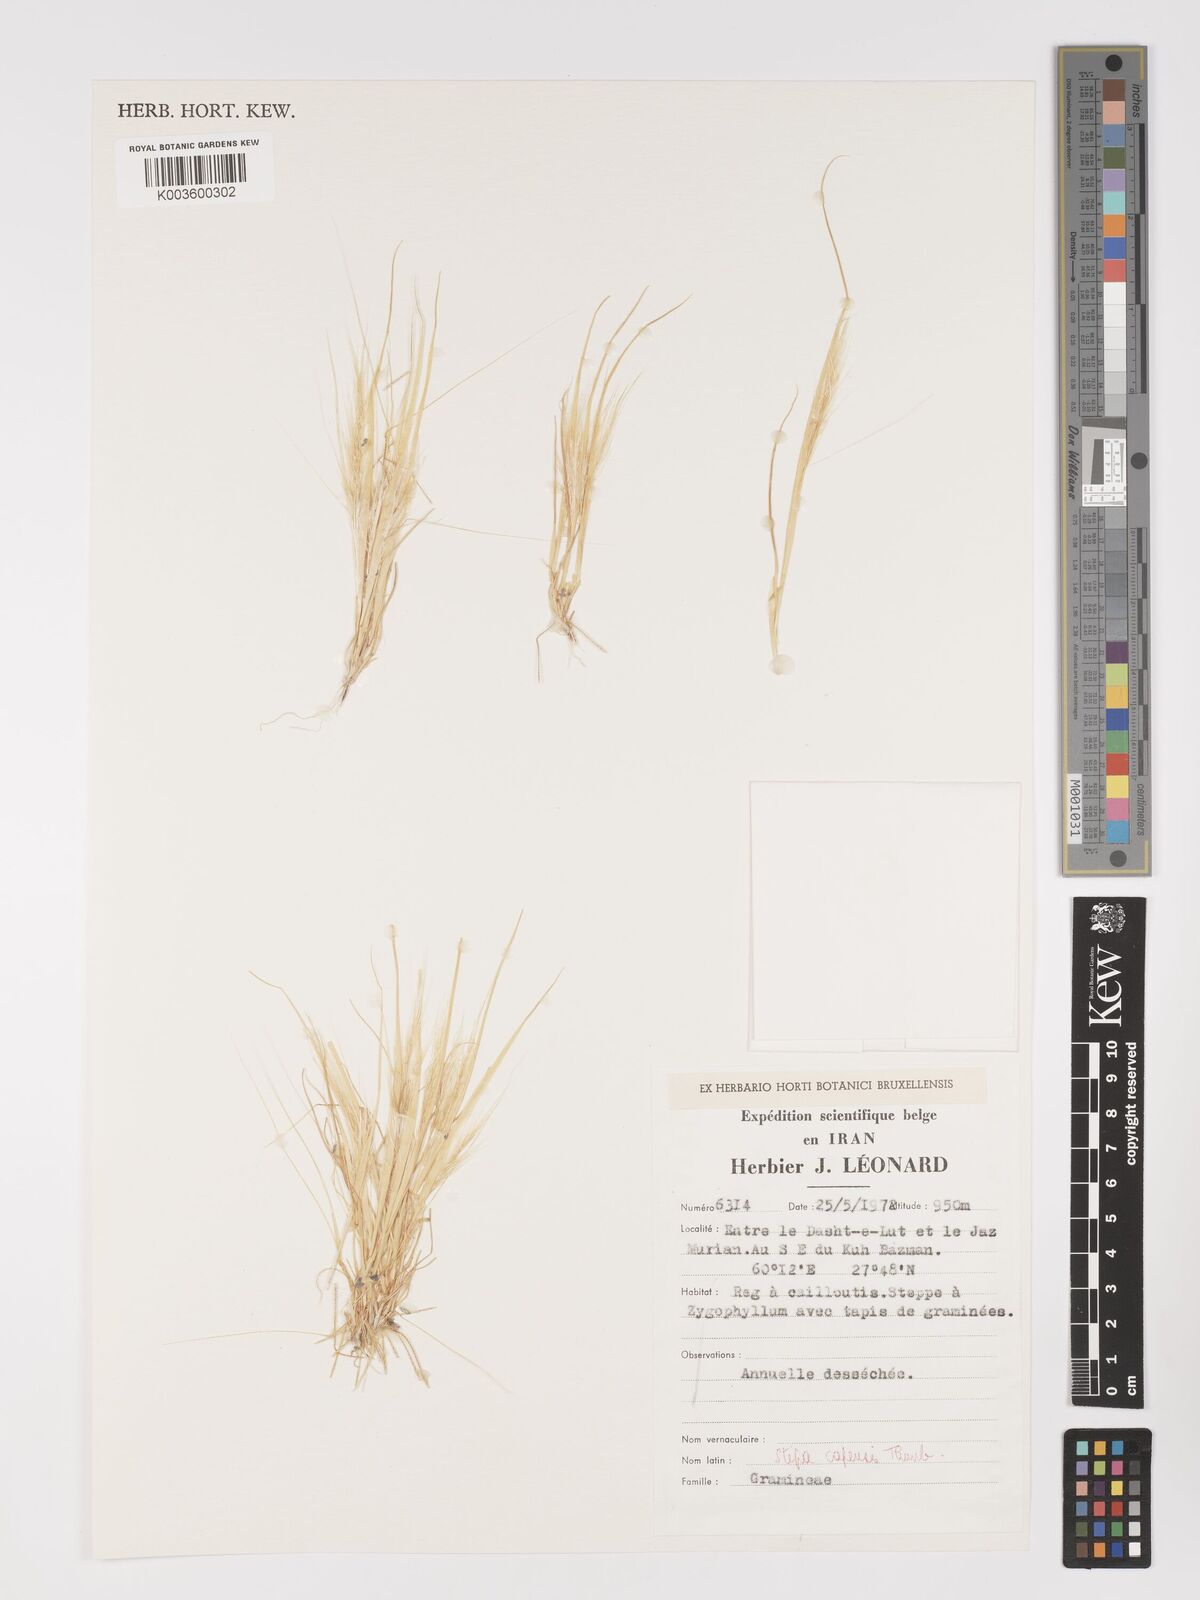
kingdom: Plantae
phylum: Tracheophyta
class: Liliopsida
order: Poales
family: Poaceae
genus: Stipellula
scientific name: Stipellula capensis
